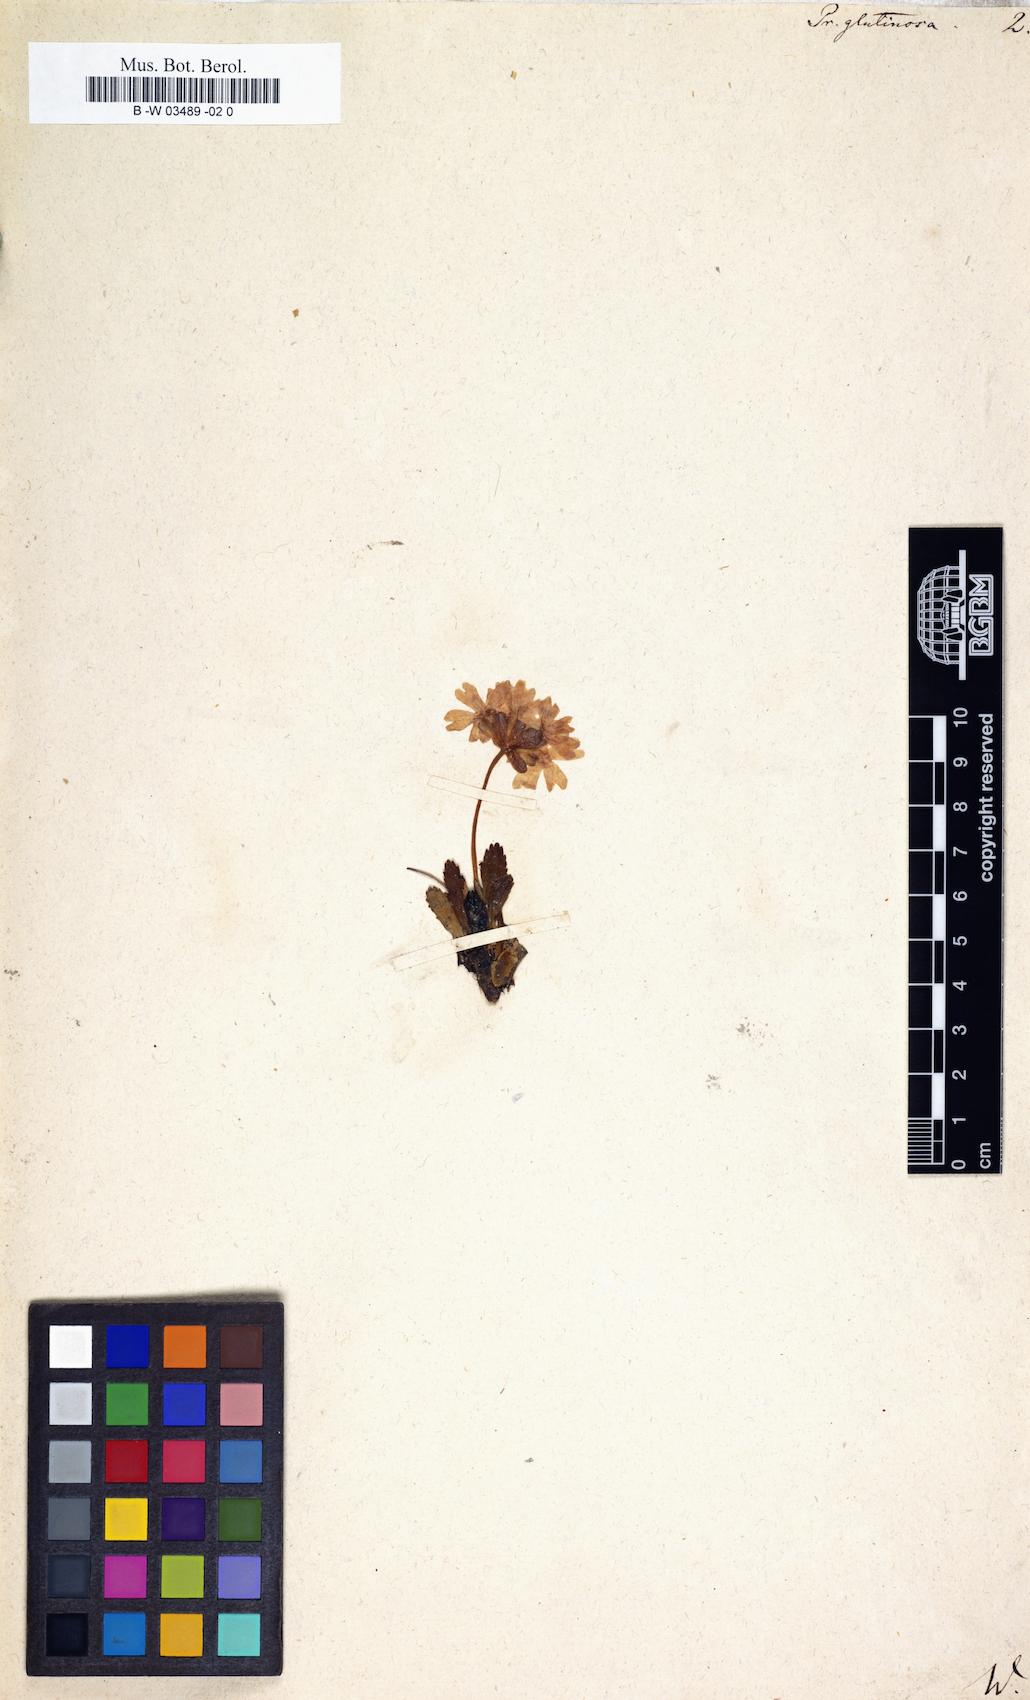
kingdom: Plantae
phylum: Tracheophyta
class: Magnoliopsida
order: Ericales
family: Primulaceae
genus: Primula
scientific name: Primula glutinosa
